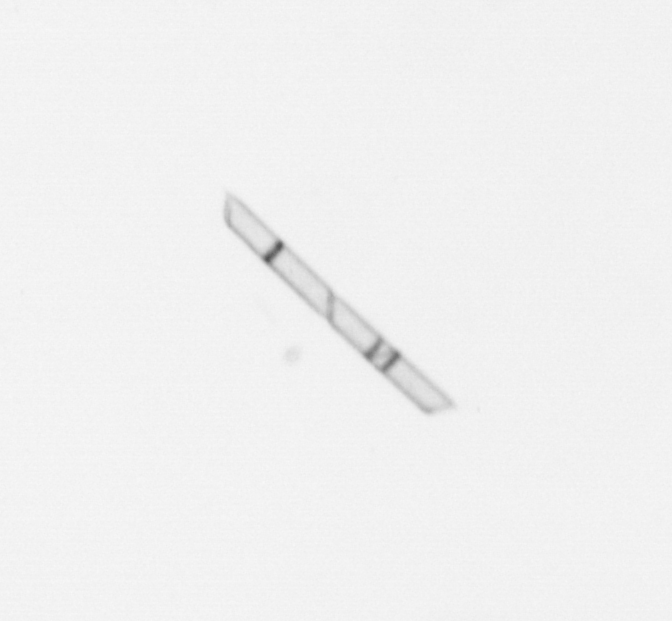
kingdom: Chromista
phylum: Ochrophyta
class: Bacillariophyceae
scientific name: Bacillariophyceae
